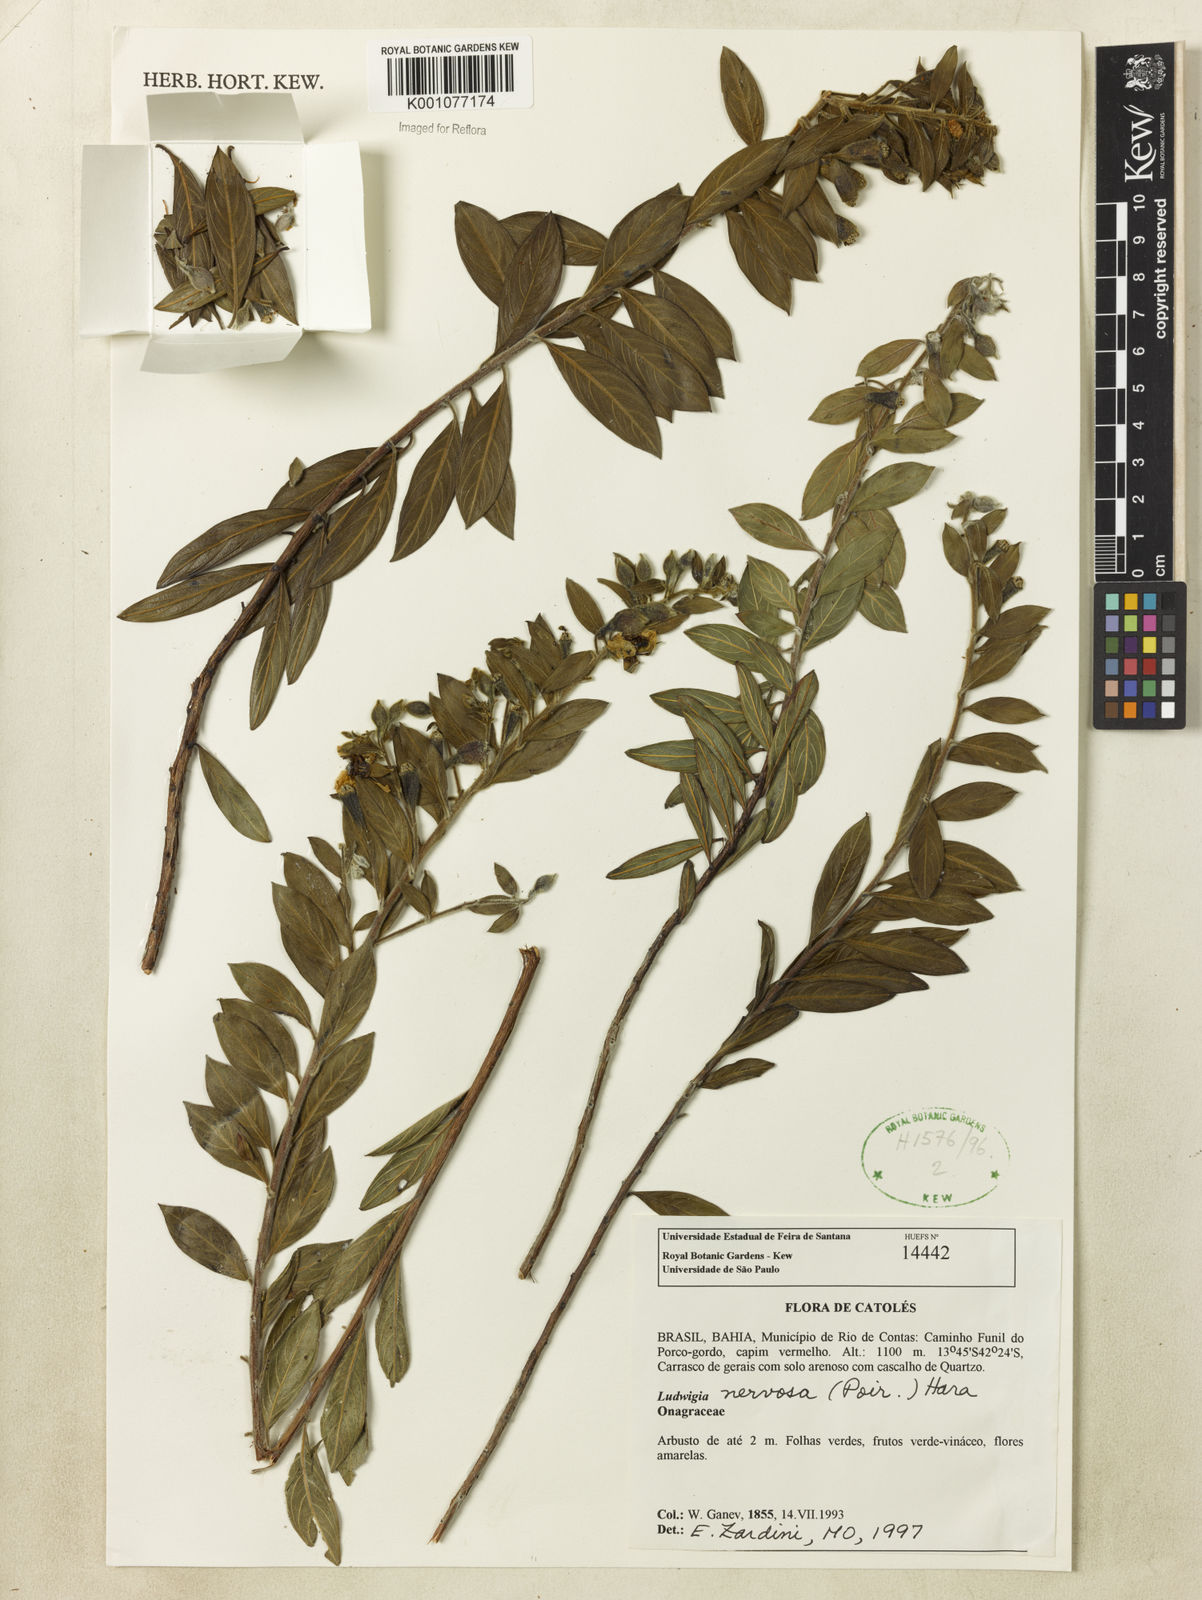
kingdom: Plantae
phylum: Tracheophyta
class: Magnoliopsida
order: Myrtales
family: Onagraceae
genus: Ludwigia
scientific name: Ludwigia nervosa
